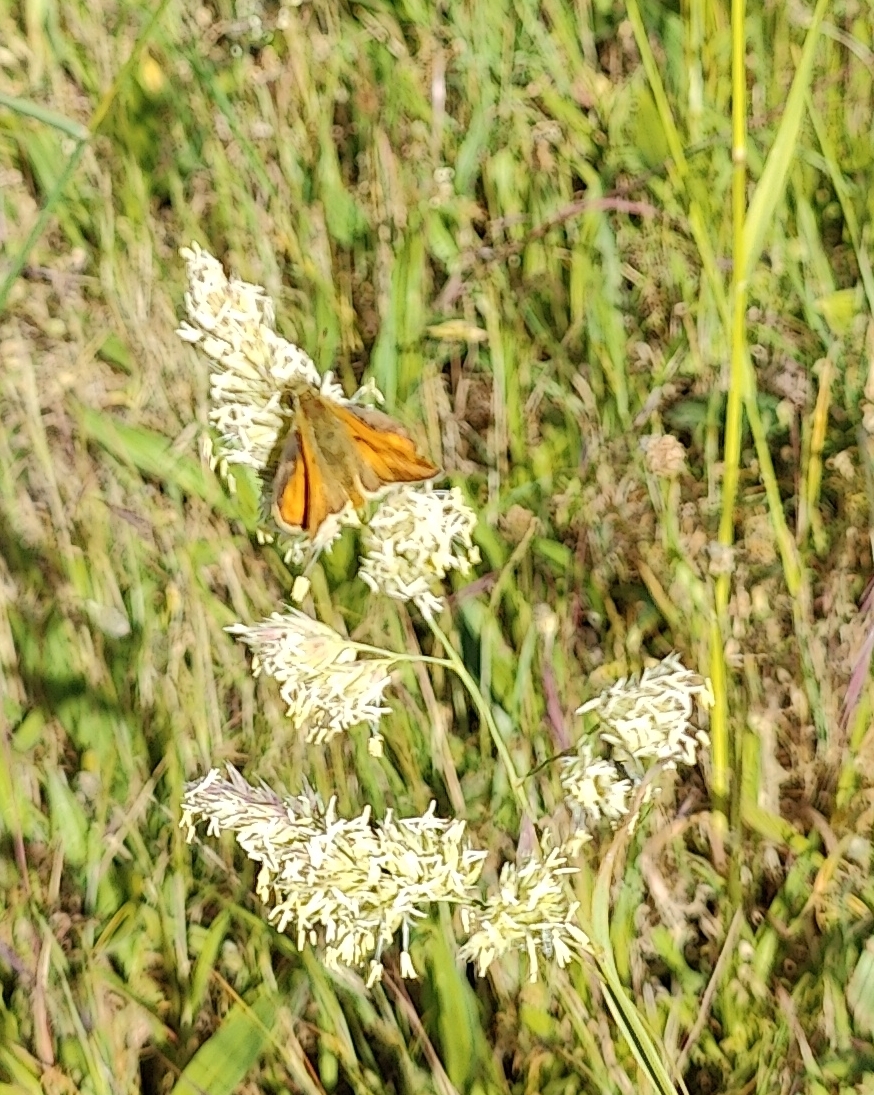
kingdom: Animalia
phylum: Arthropoda
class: Insecta
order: Lepidoptera
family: Hesperiidae
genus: Ochlodes
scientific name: Ochlodes venata
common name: Stor bredpande
